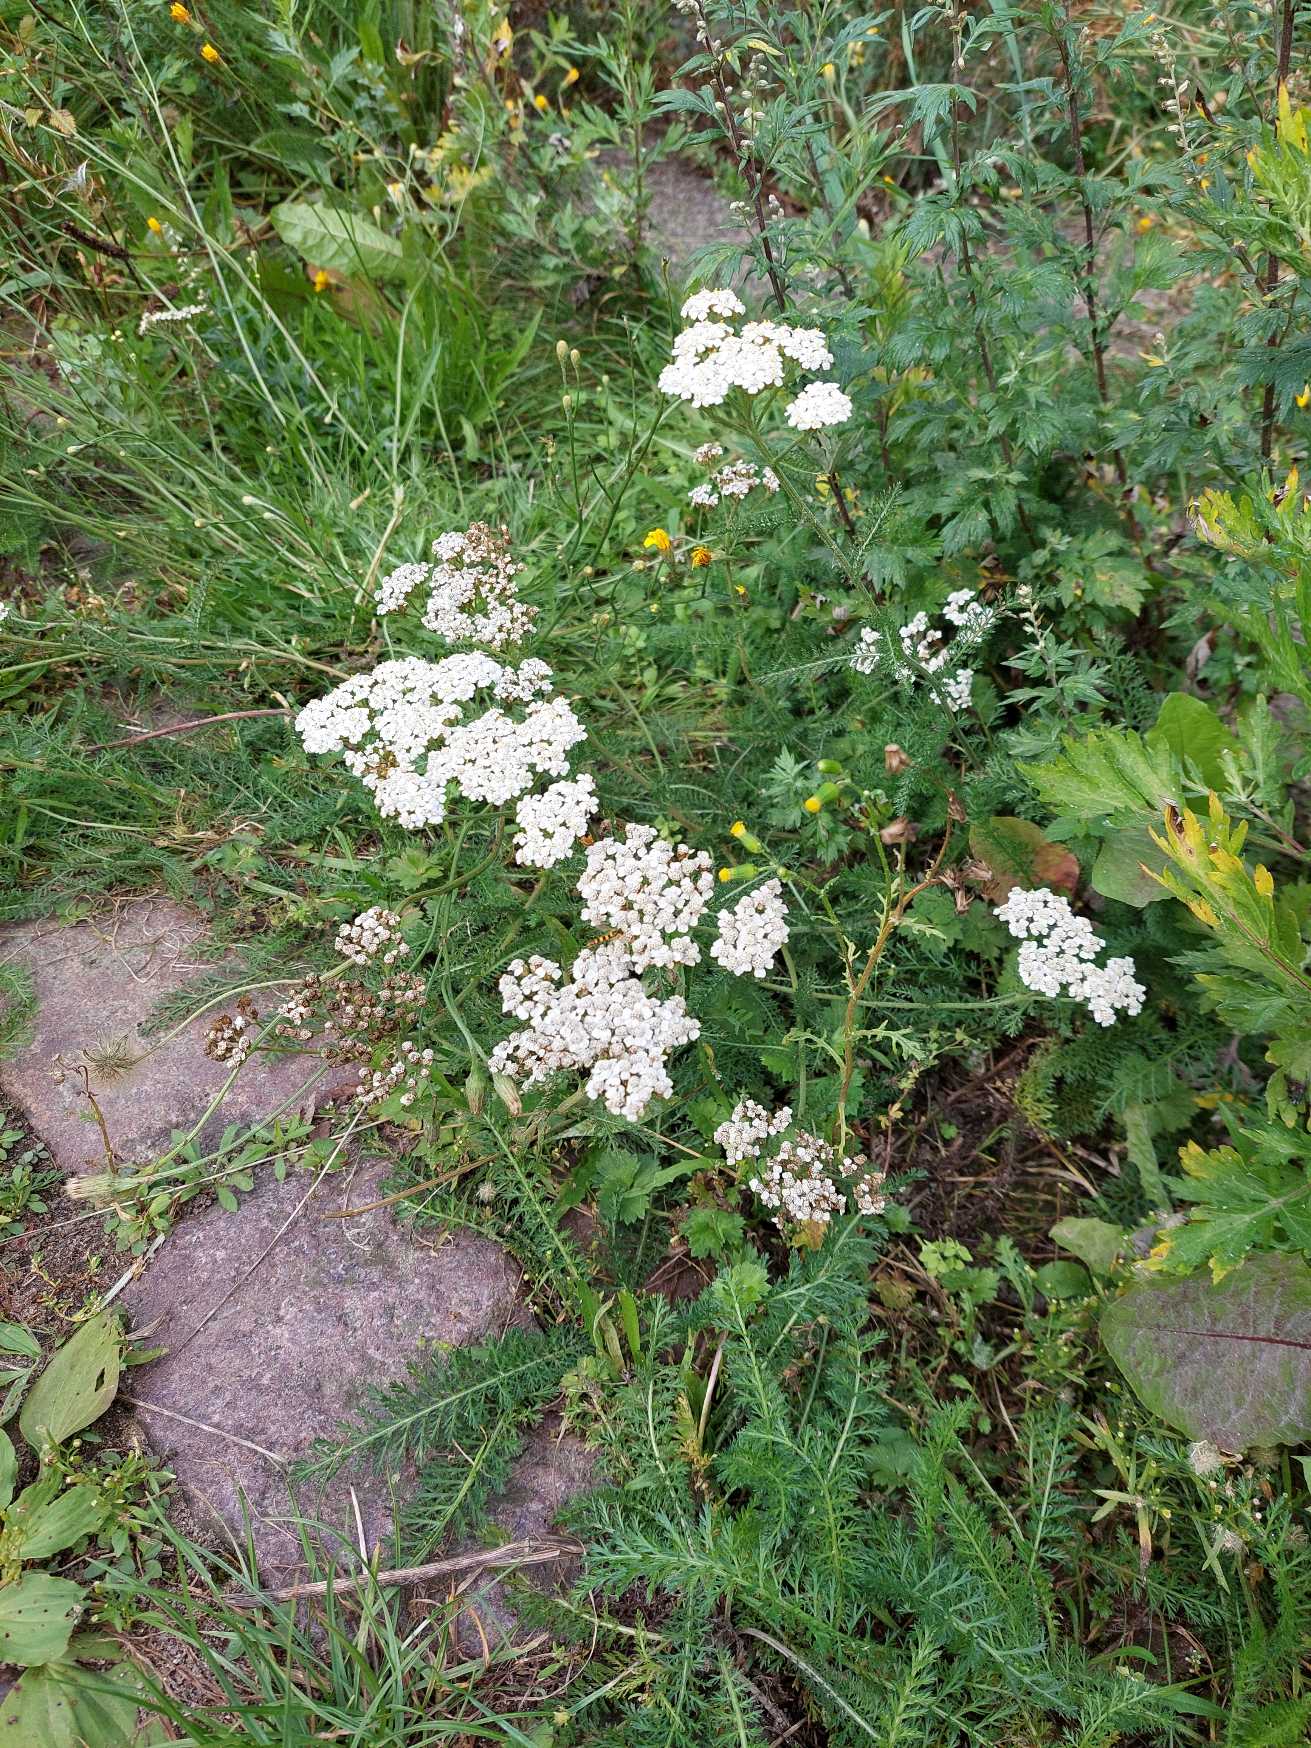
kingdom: Plantae
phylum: Tracheophyta
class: Magnoliopsida
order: Asterales
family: Asteraceae
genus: Achillea
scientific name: Achillea millefolium
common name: Almindelig røllike
